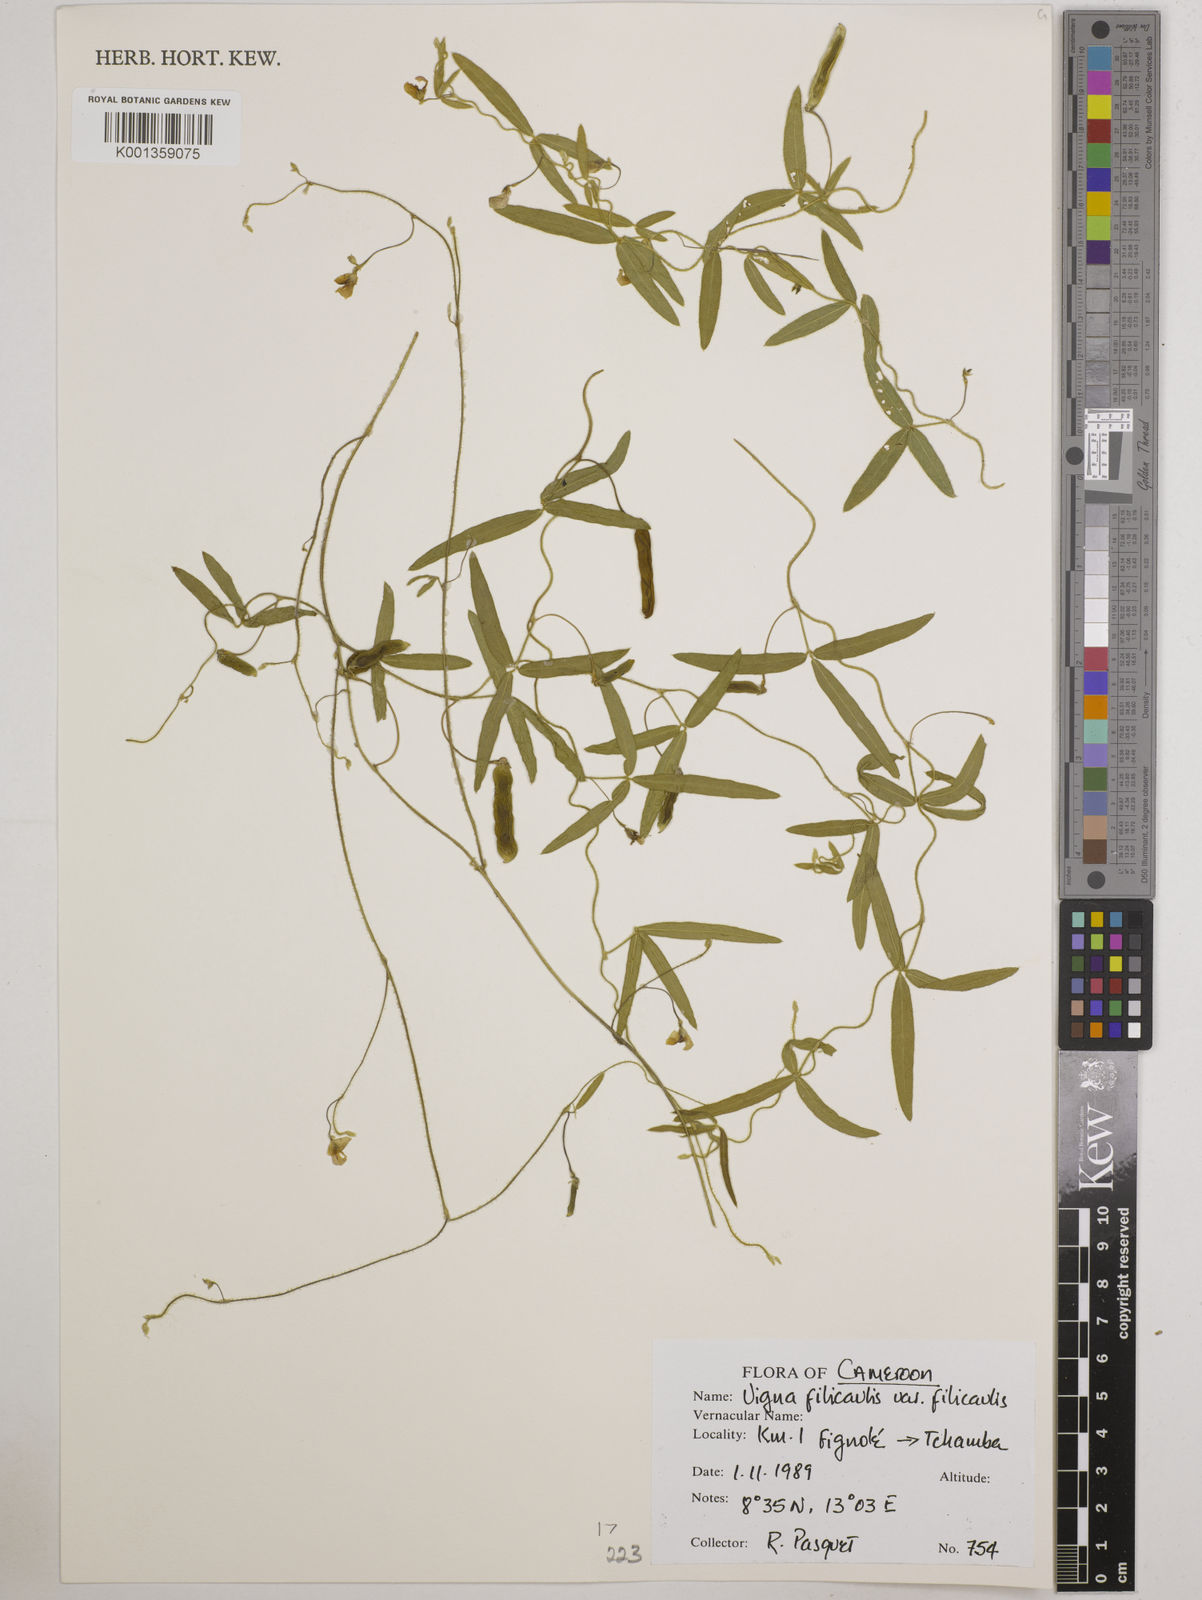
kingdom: Plantae
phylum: Tracheophyta
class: Magnoliopsida
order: Fabales
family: Fabaceae
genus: Vigna
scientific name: Vigna
